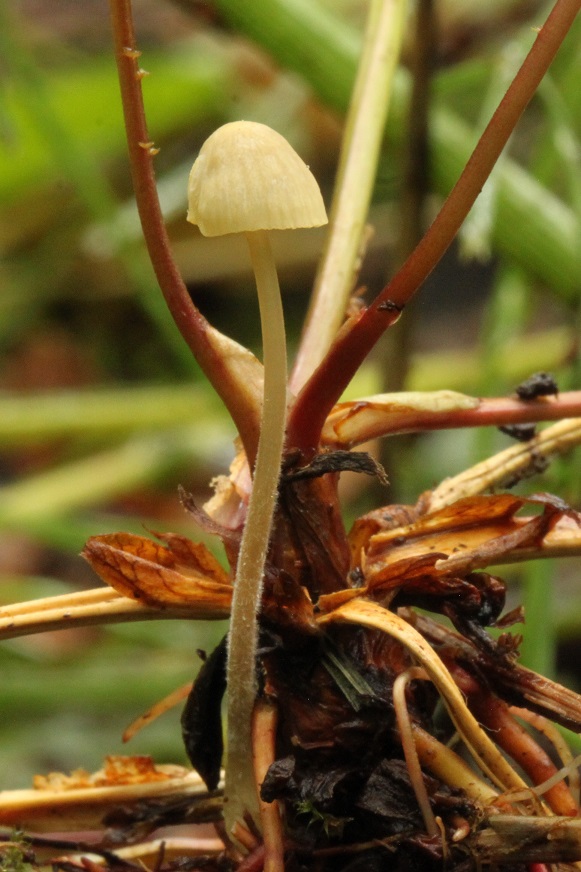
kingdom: Fungi
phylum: Basidiomycota
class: Agaricomycetes
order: Agaricales
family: Mycenaceae
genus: Mycena
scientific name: Mycena citrinomarginata
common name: gulægget huesvamp
